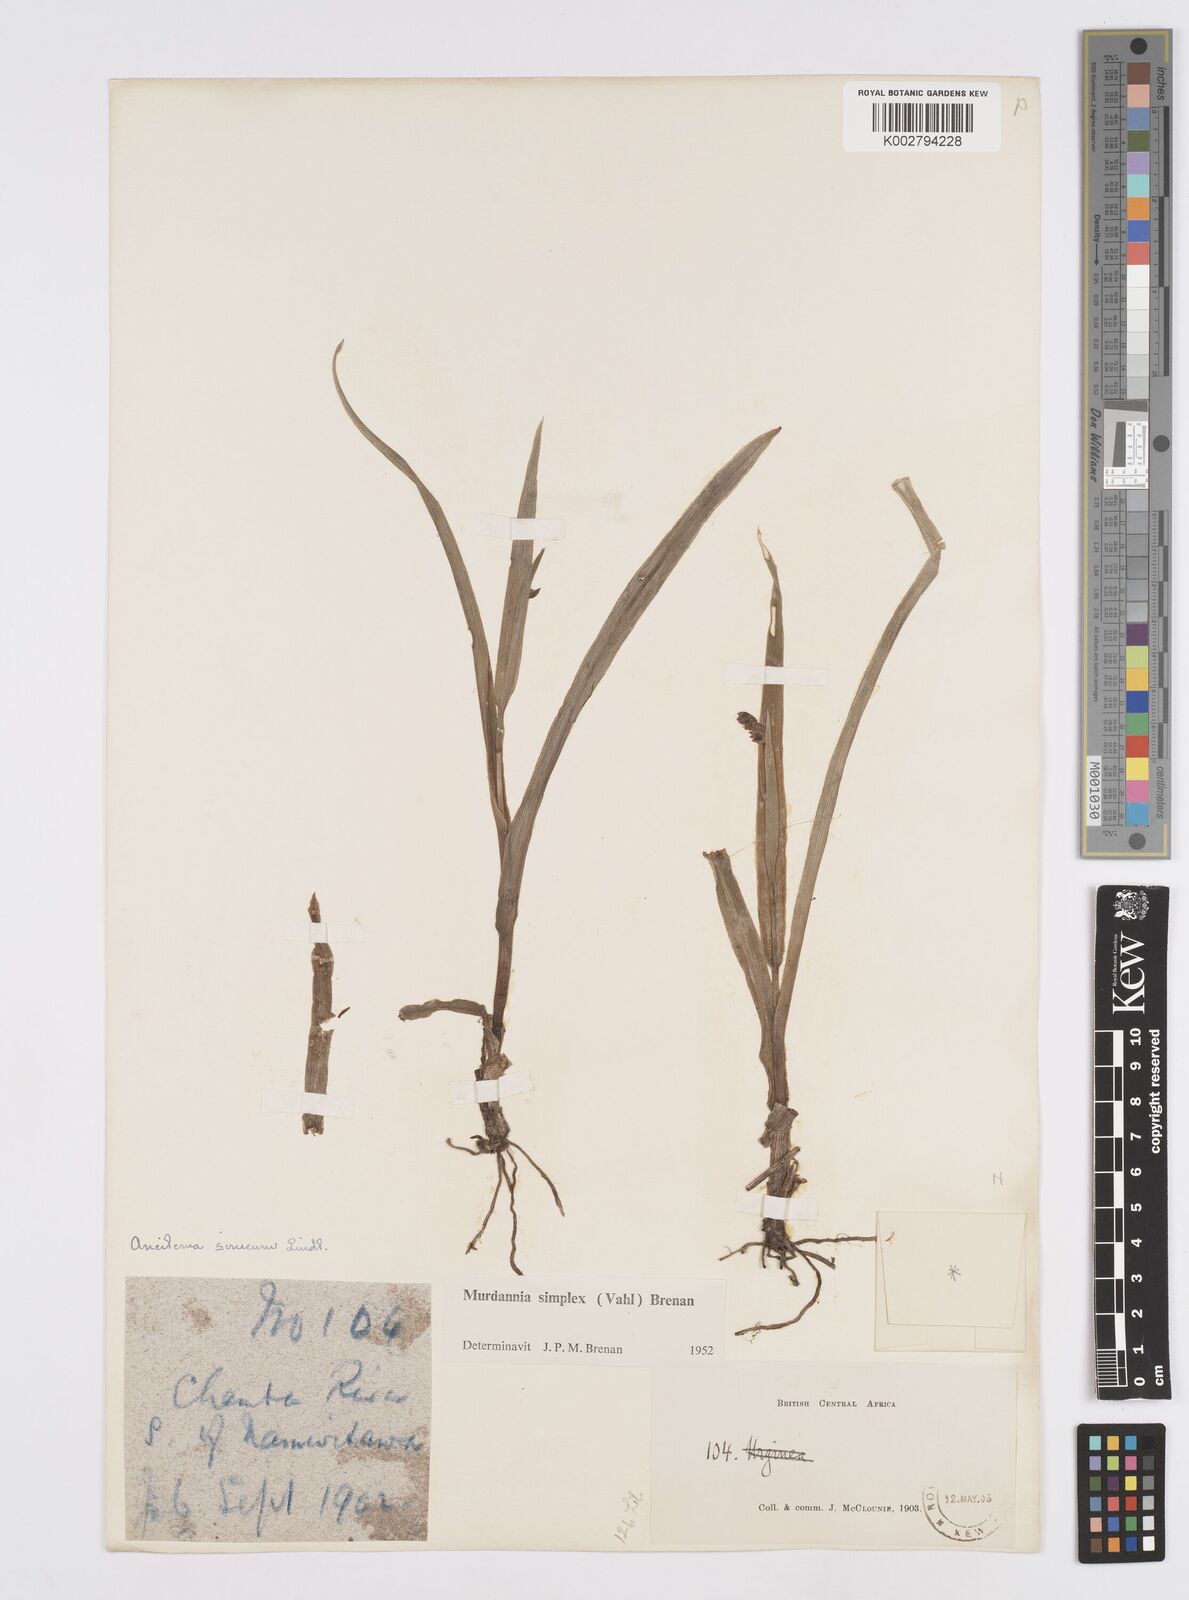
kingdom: Plantae
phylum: Tracheophyta
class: Liliopsida
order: Commelinales
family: Commelinaceae
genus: Murdannia
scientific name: Murdannia simplex
